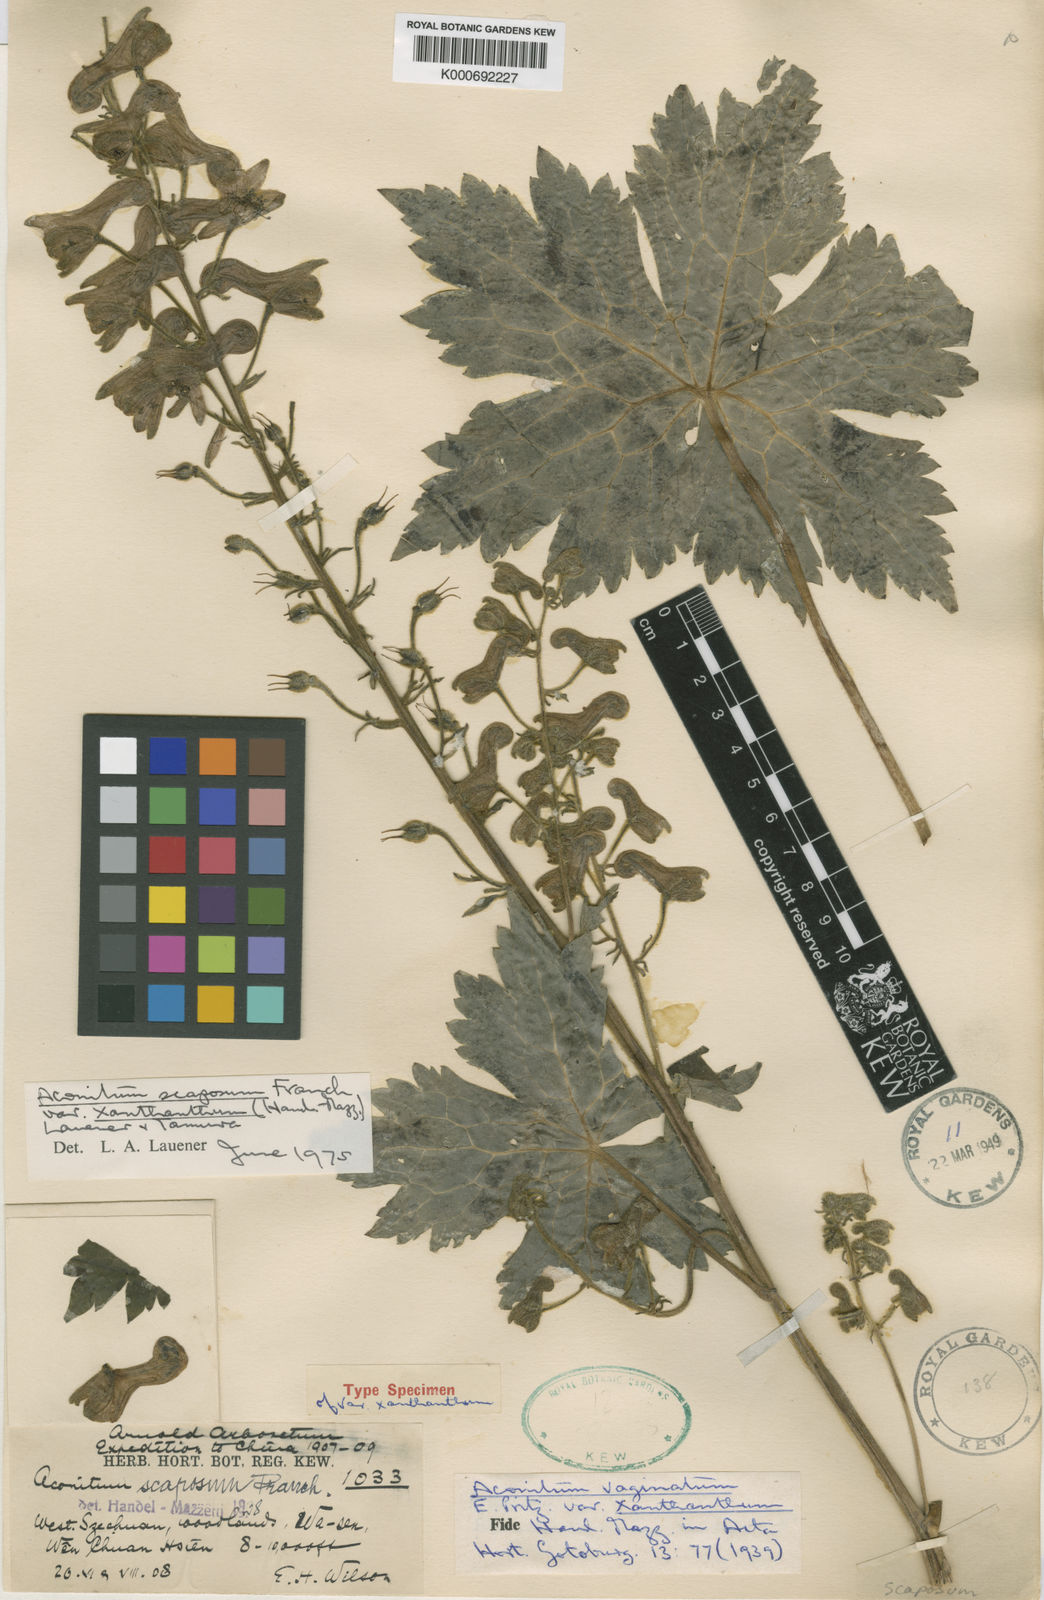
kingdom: Plantae
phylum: Tracheophyta
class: Magnoliopsida
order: Ranunculales
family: Ranunculaceae
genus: Aconitum
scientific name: Aconitum scaposum
